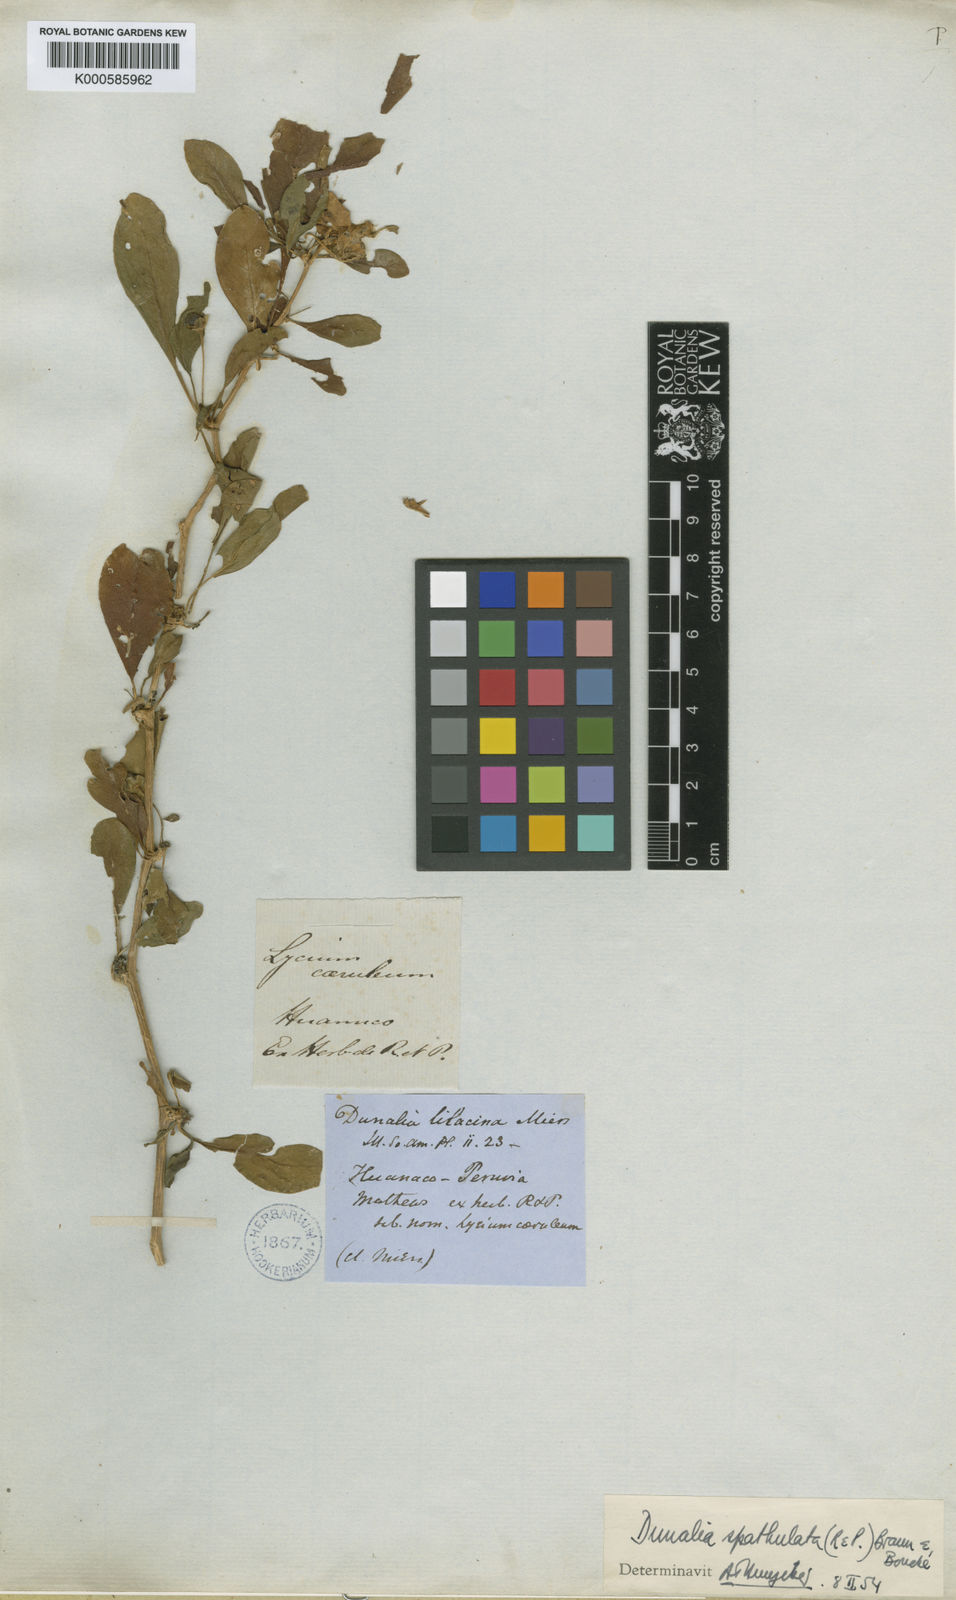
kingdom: Plantae
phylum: Tracheophyta
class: Magnoliopsida
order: Solanales
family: Solanaceae
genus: Dunalia
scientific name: Dunalia spathulata
